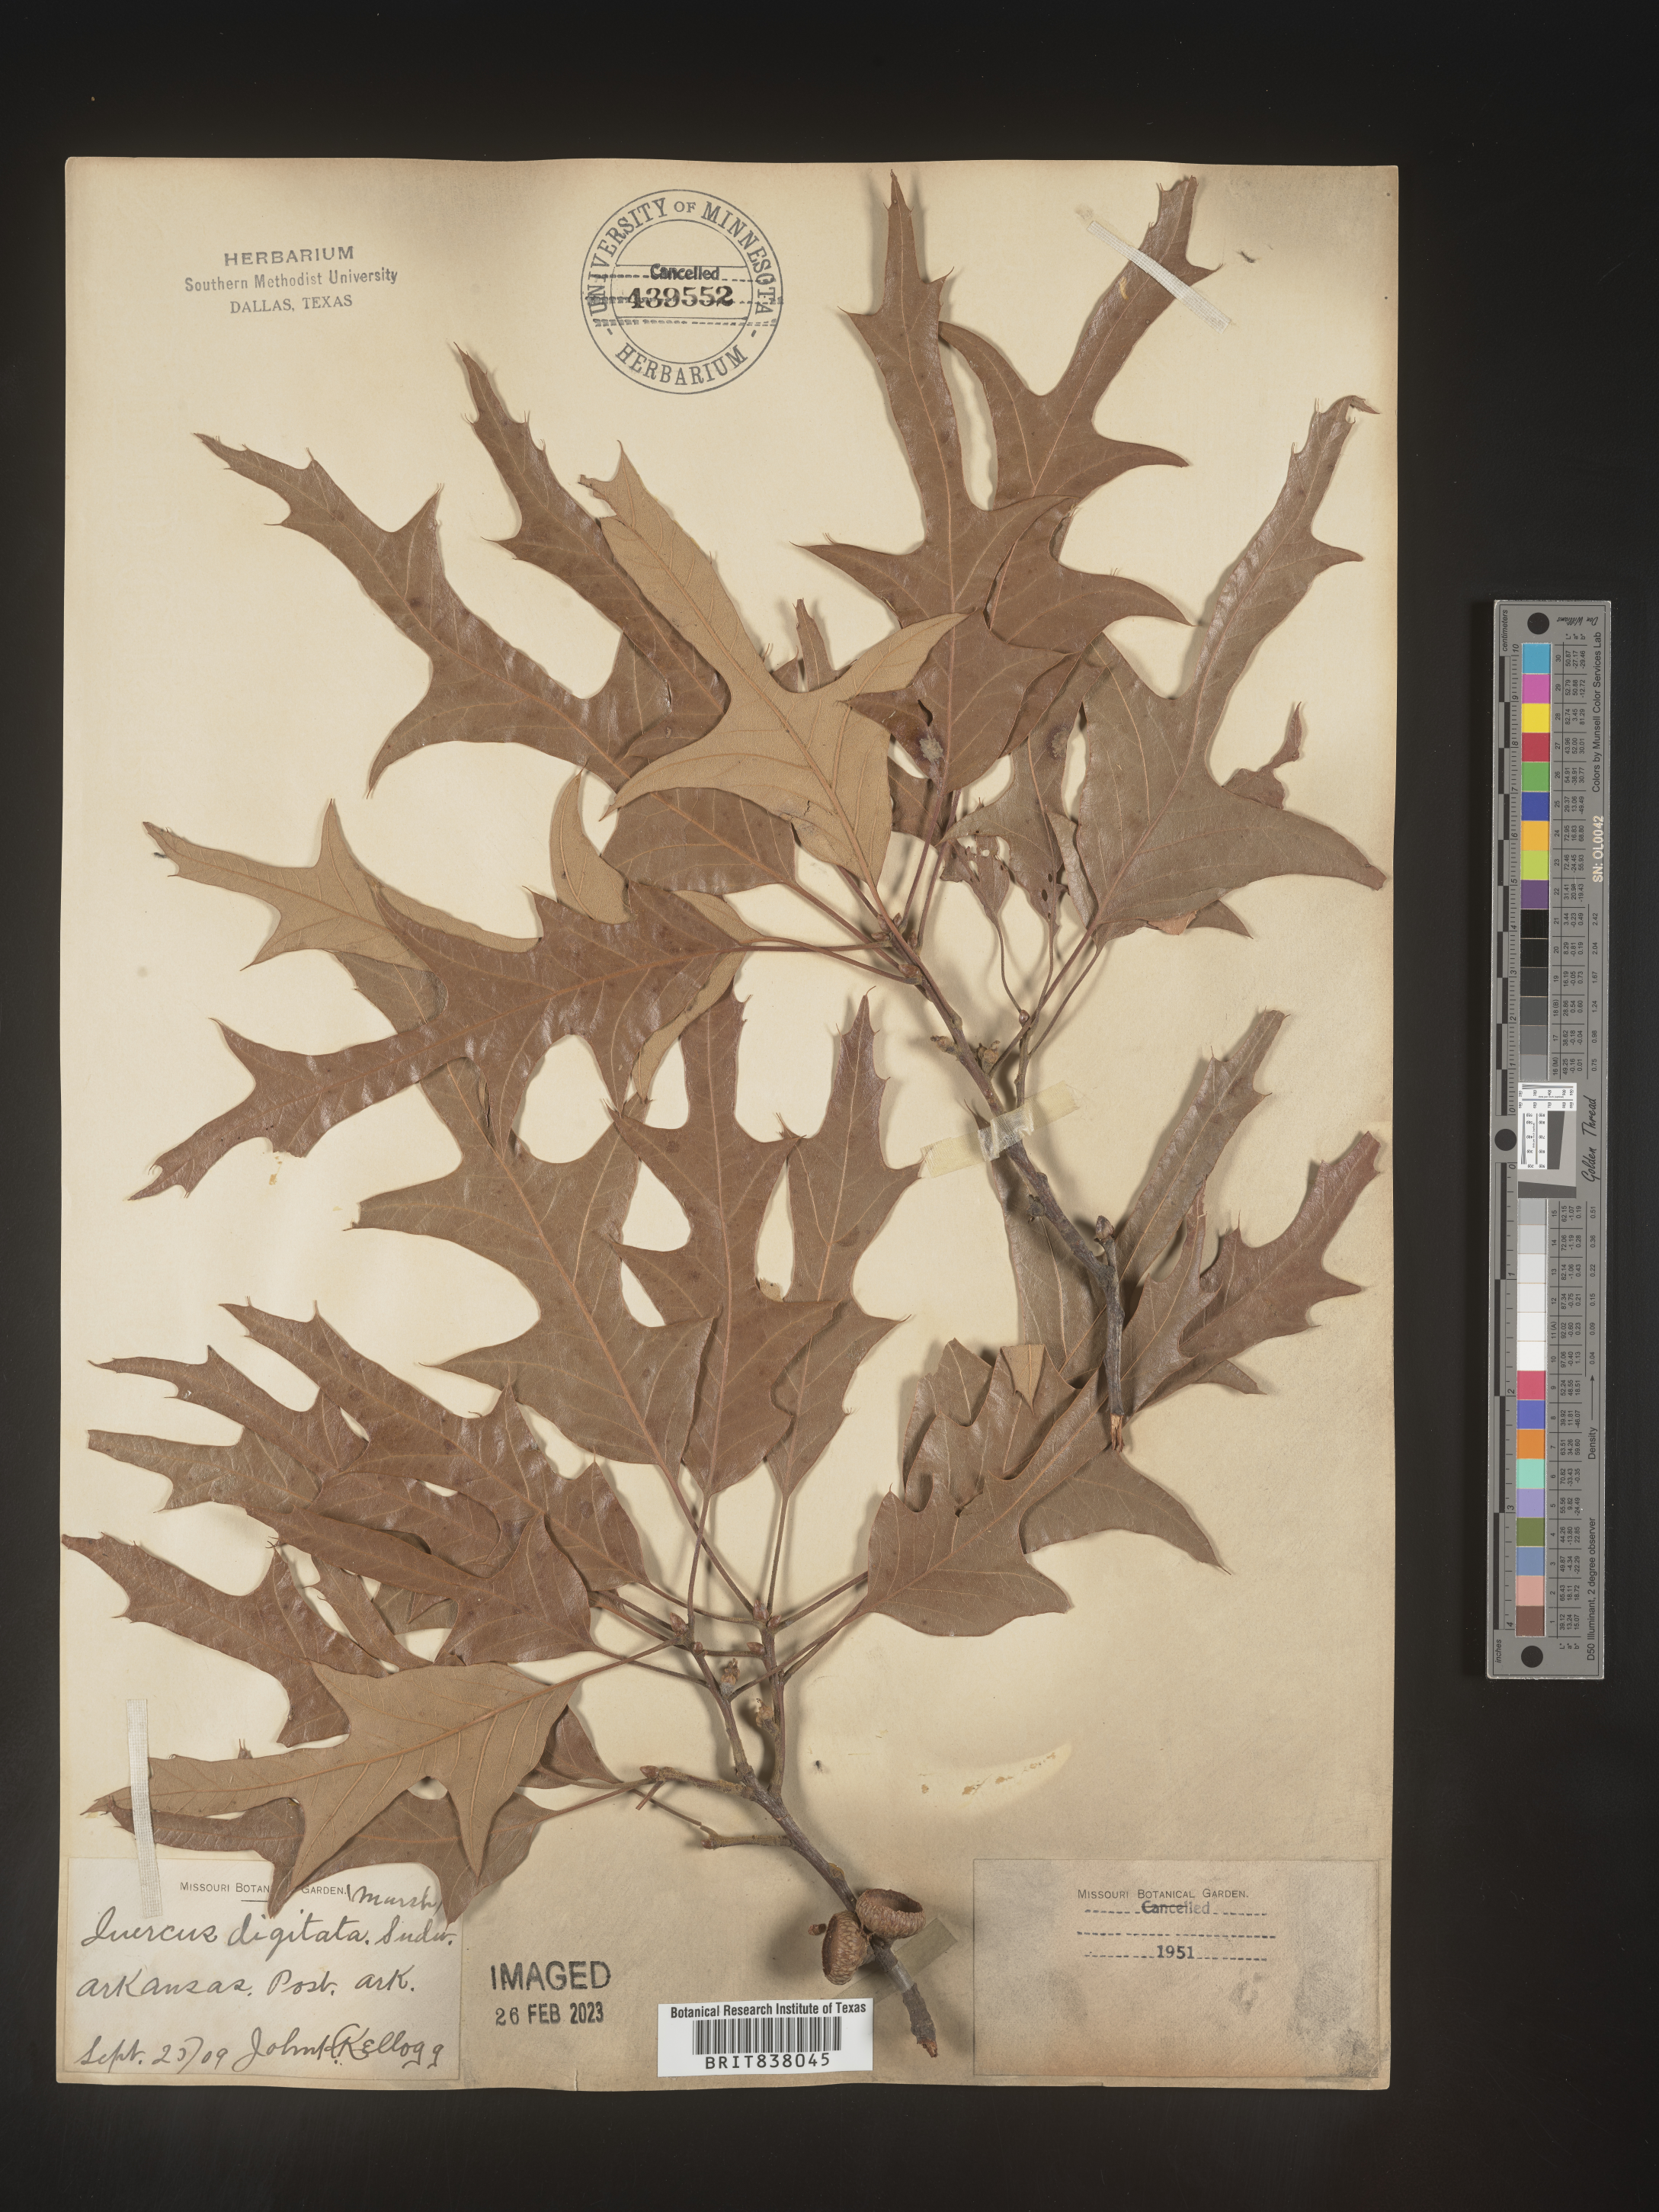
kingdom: Plantae
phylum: Tracheophyta
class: Magnoliopsida
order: Fagales
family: Fagaceae
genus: Quercus
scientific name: Quercus
